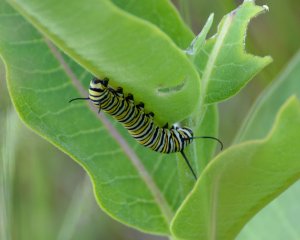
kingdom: Animalia
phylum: Arthropoda
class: Insecta
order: Lepidoptera
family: Nymphalidae
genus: Danaus
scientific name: Danaus plexippus
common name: Monarch
